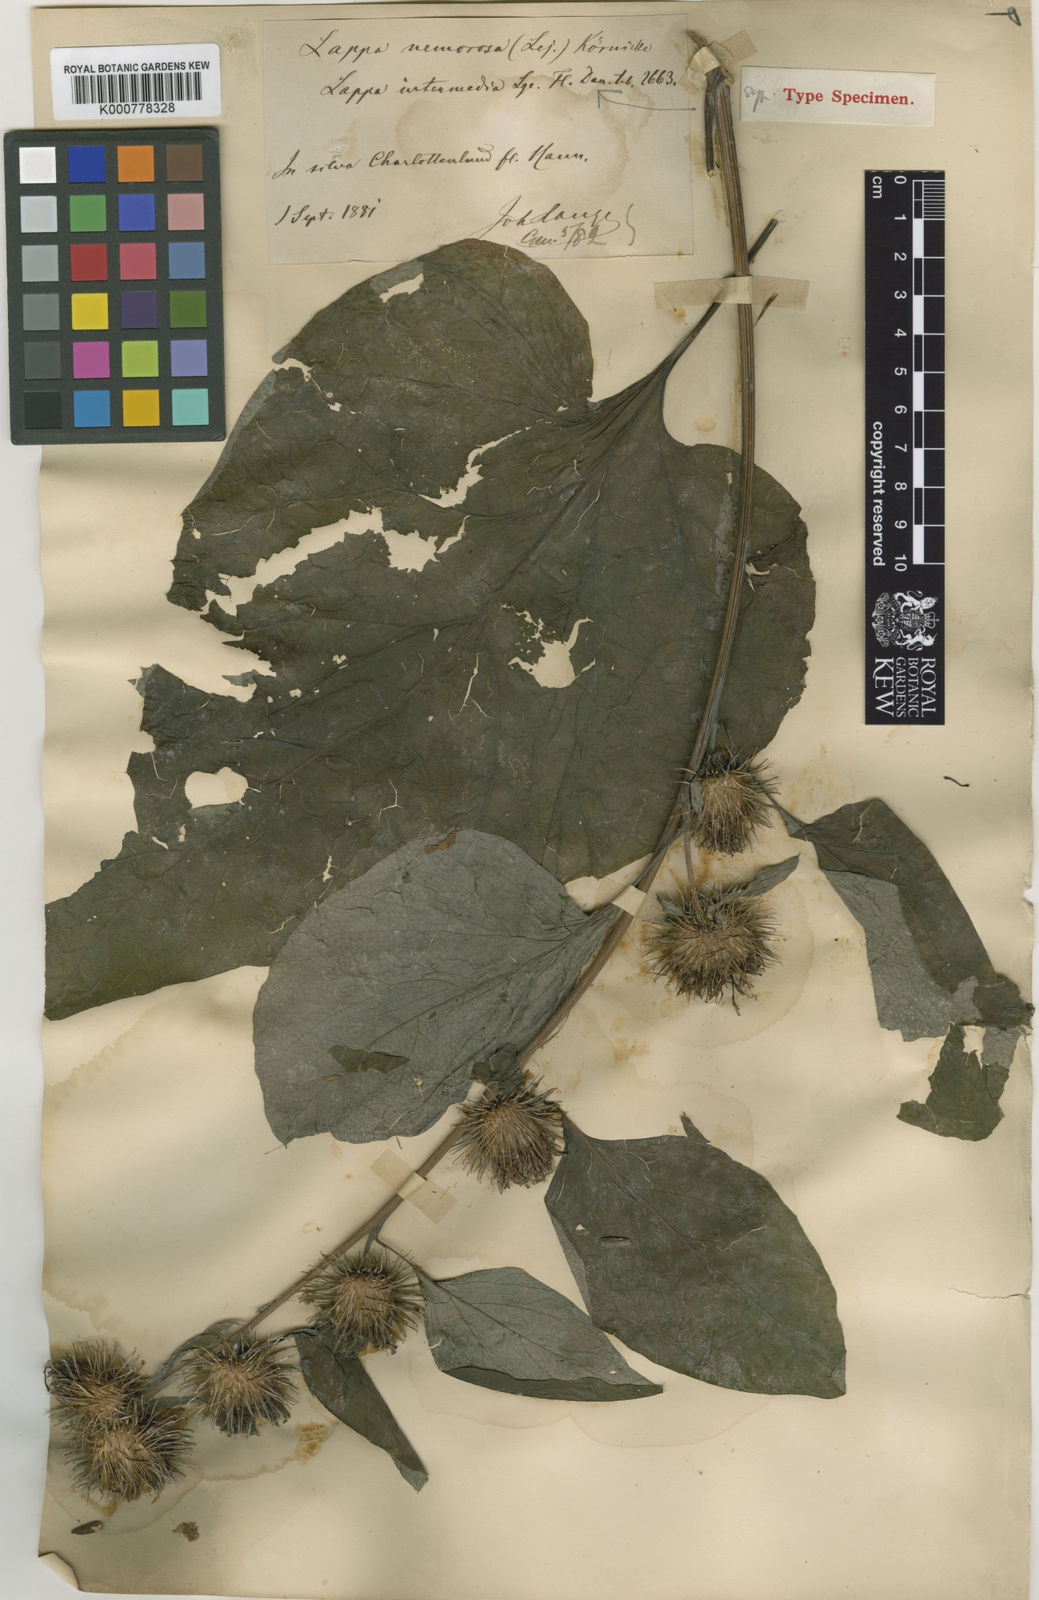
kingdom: Plantae
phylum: Tracheophyta
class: Magnoliopsida
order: Asterales
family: Asteraceae
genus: Arctium
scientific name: Arctium nemorosum
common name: Wood burdock
